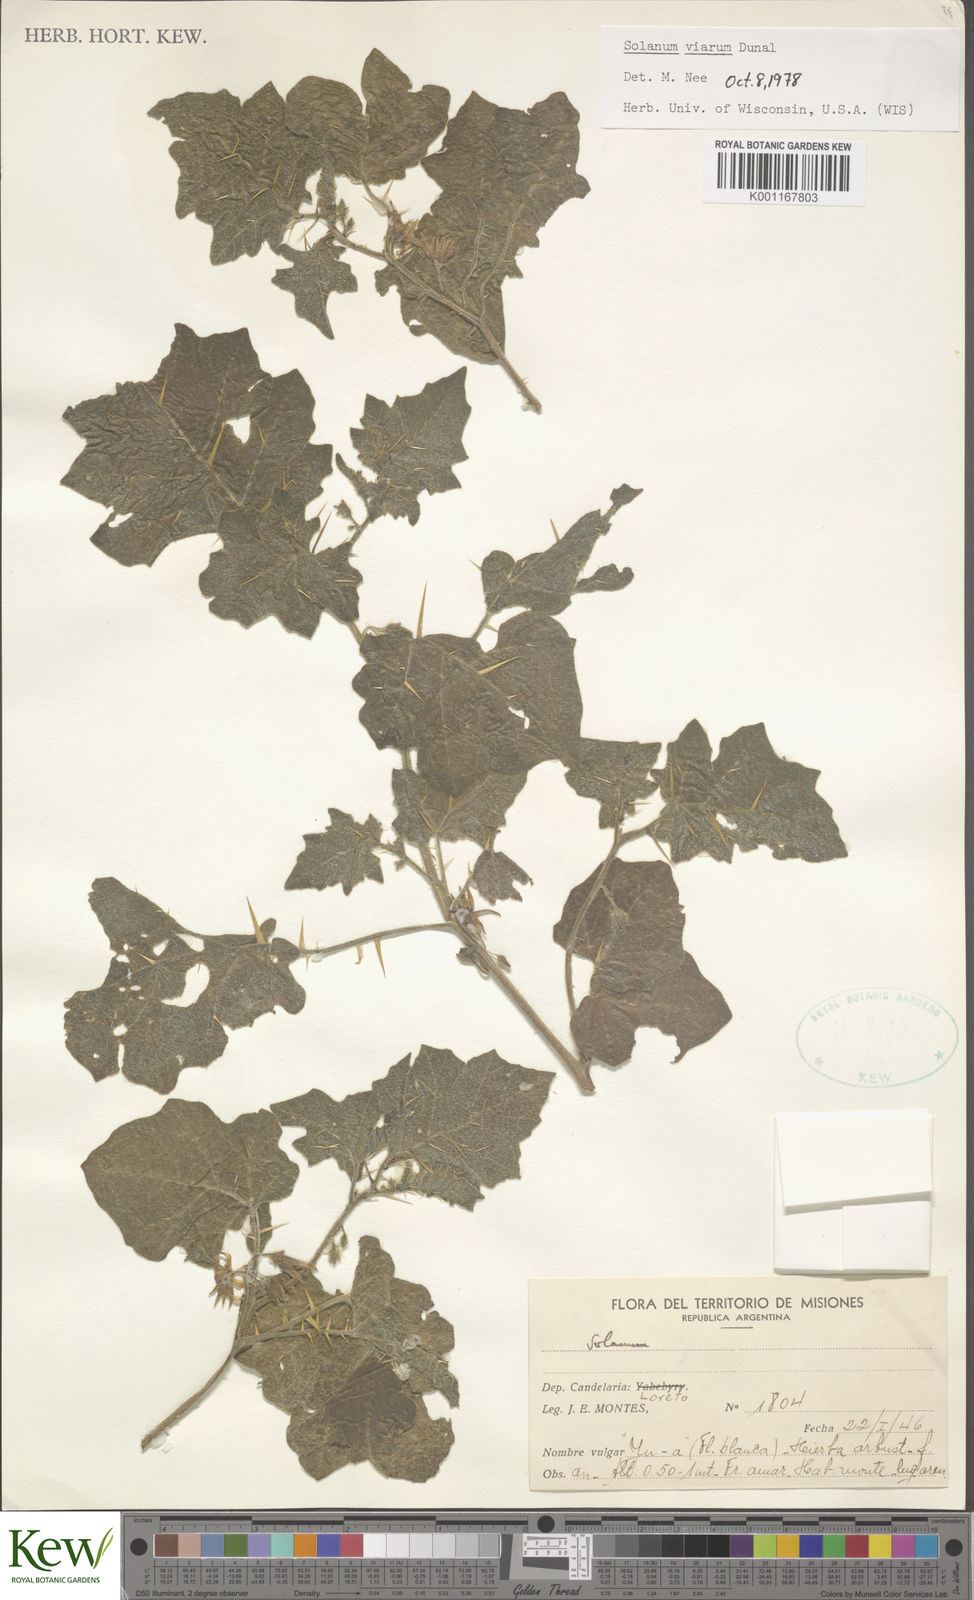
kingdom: Plantae
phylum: Tracheophyta
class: Magnoliopsida
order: Solanales
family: Solanaceae
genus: Solanum
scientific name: Solanum viarum
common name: Tropical soda apple
